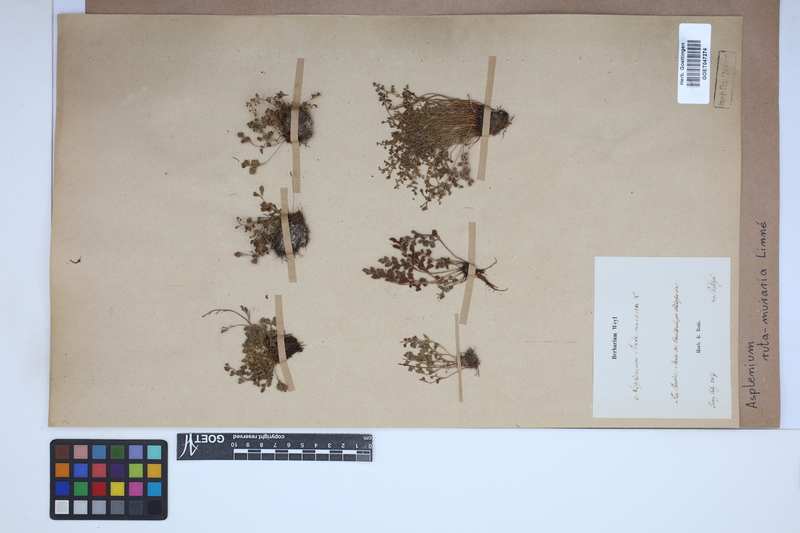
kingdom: Plantae
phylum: Tracheophyta
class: Polypodiopsida
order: Polypodiales
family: Aspleniaceae
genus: Asplenium
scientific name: Asplenium ruta-muraria
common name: Wall-rue
